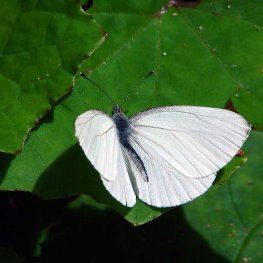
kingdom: Animalia
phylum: Arthropoda
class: Insecta
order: Lepidoptera
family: Pieridae
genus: Pieris
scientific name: Pieris oleracea
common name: Mustard White
